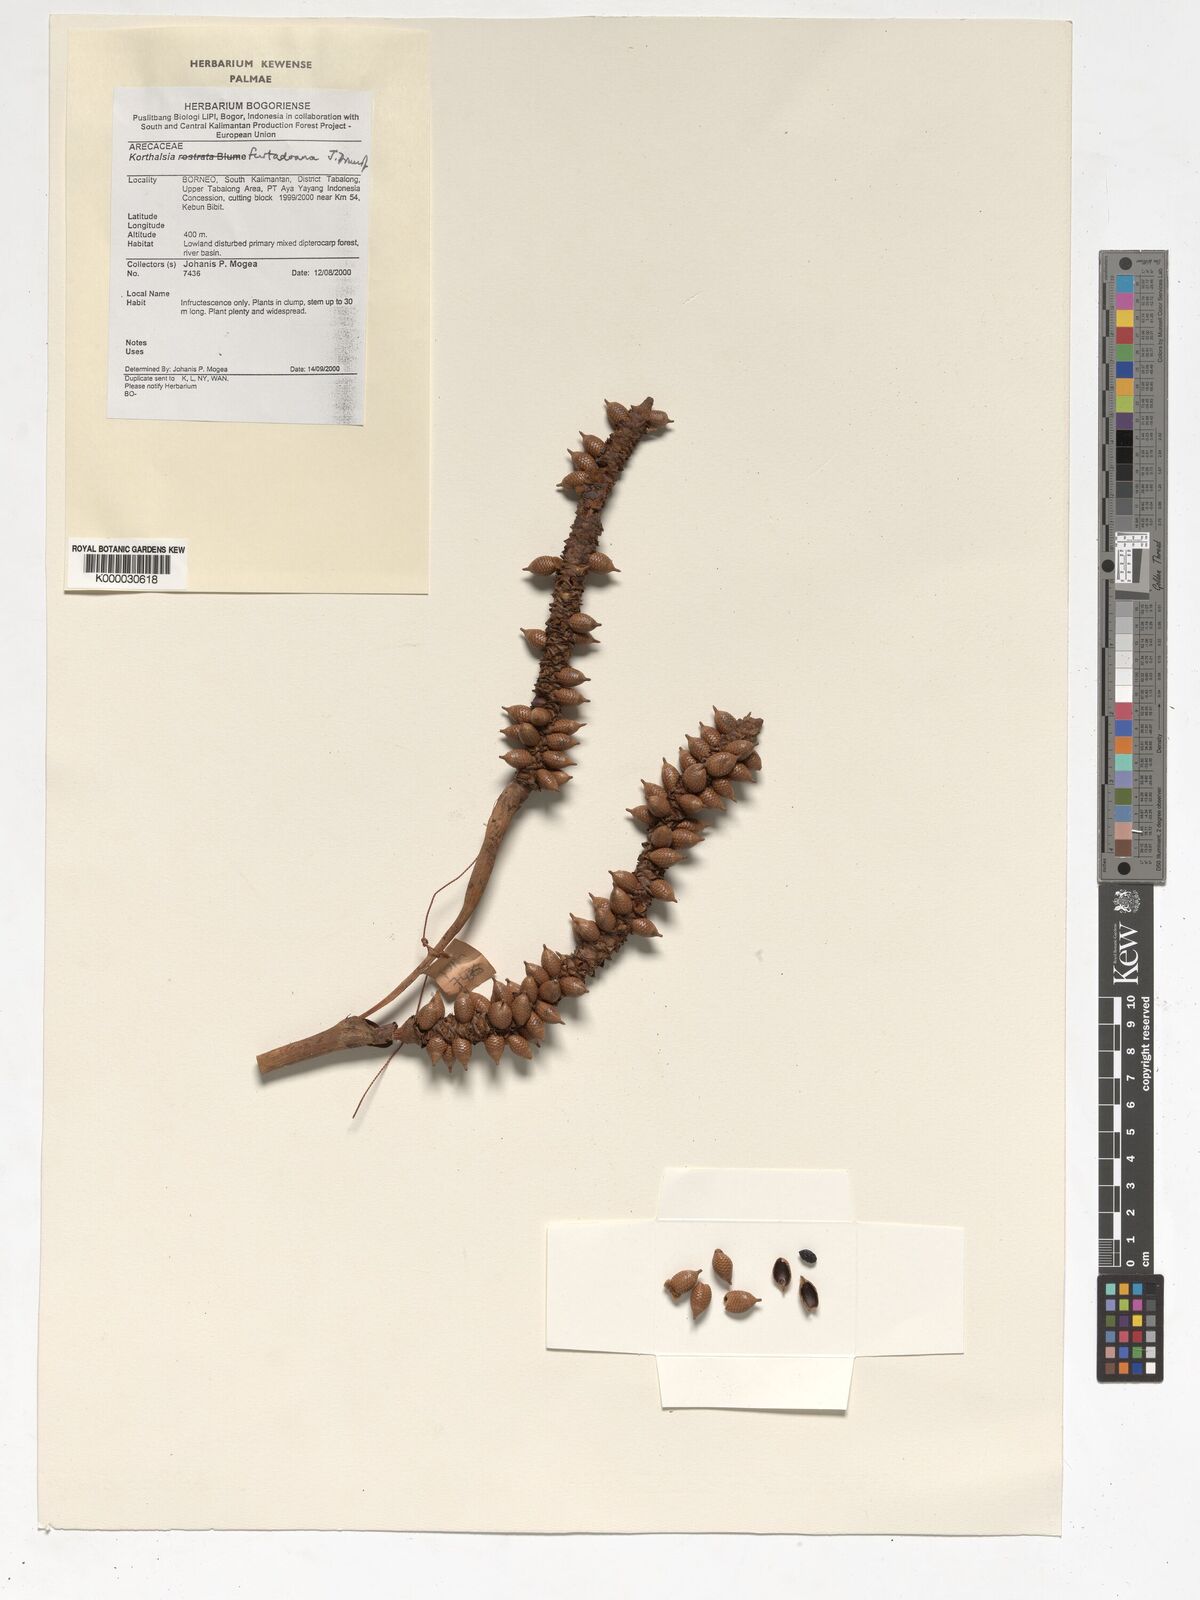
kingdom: Plantae
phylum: Tracheophyta
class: Liliopsida
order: Arecales
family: Arecaceae
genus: Korthalsia
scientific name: Korthalsia furtadoana
